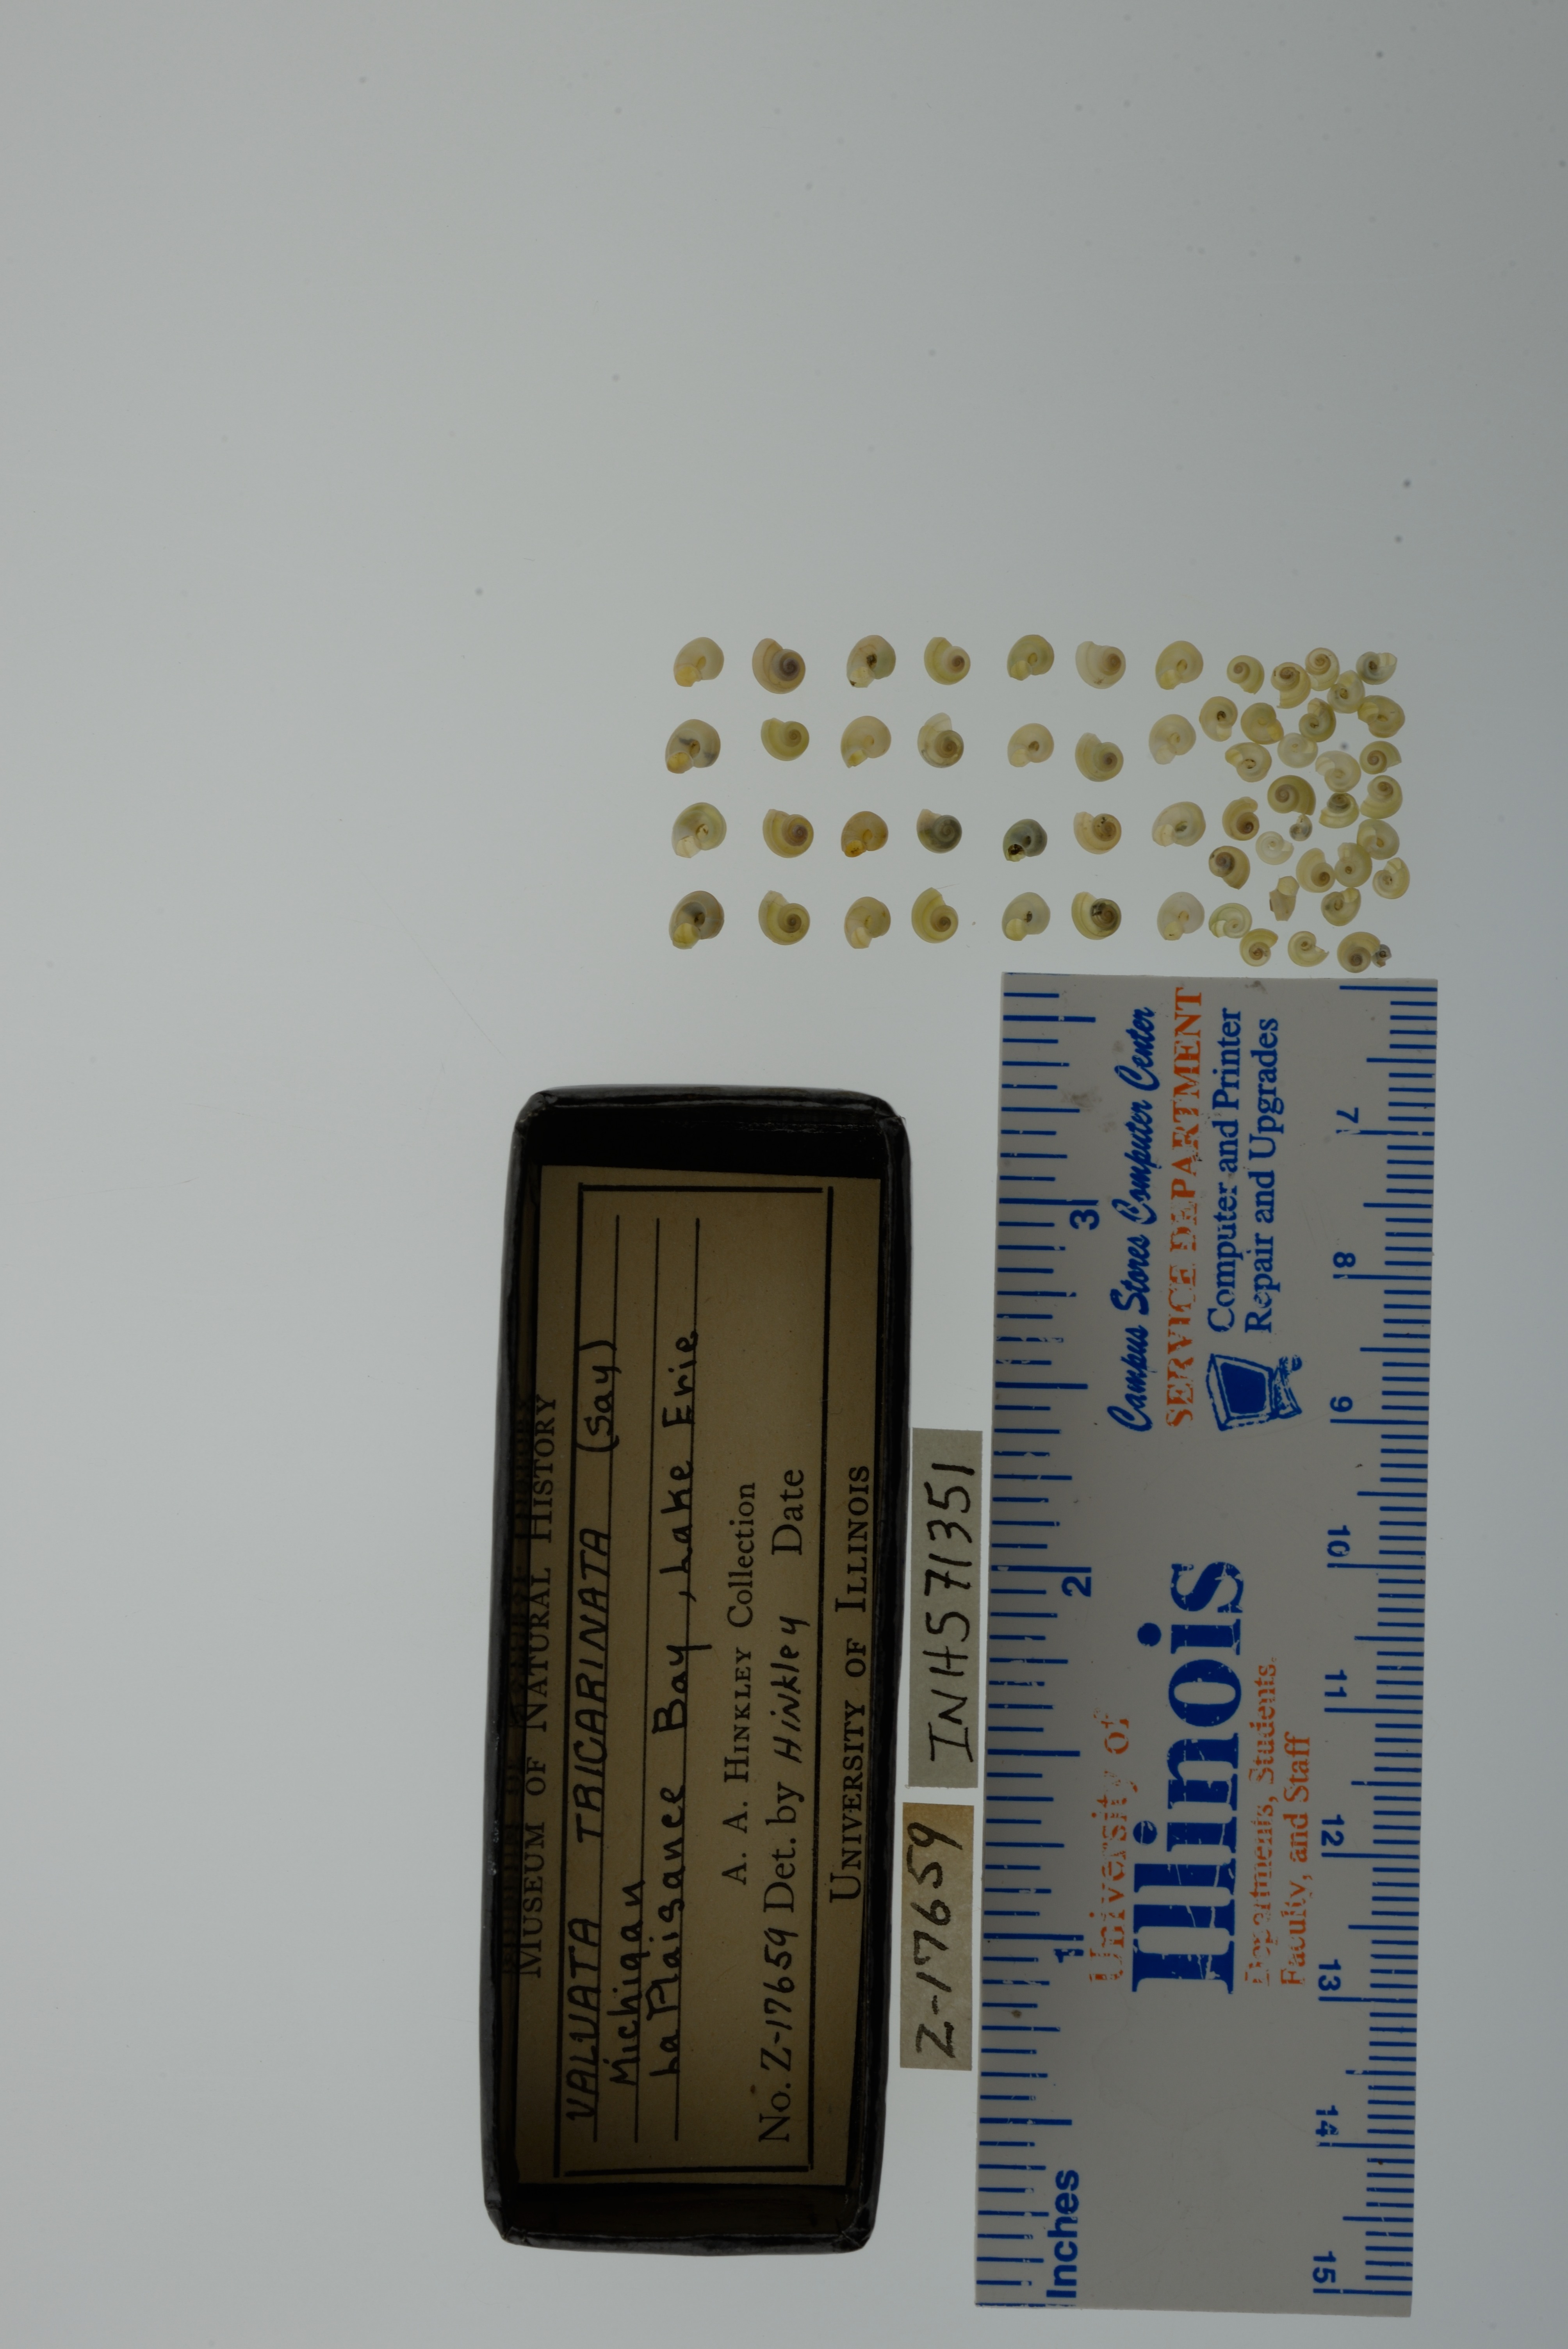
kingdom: Animalia
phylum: Mollusca
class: Gastropoda
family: Valvatidae
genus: Valvata
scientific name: Valvata tricarinata
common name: Three-ridge valvata
